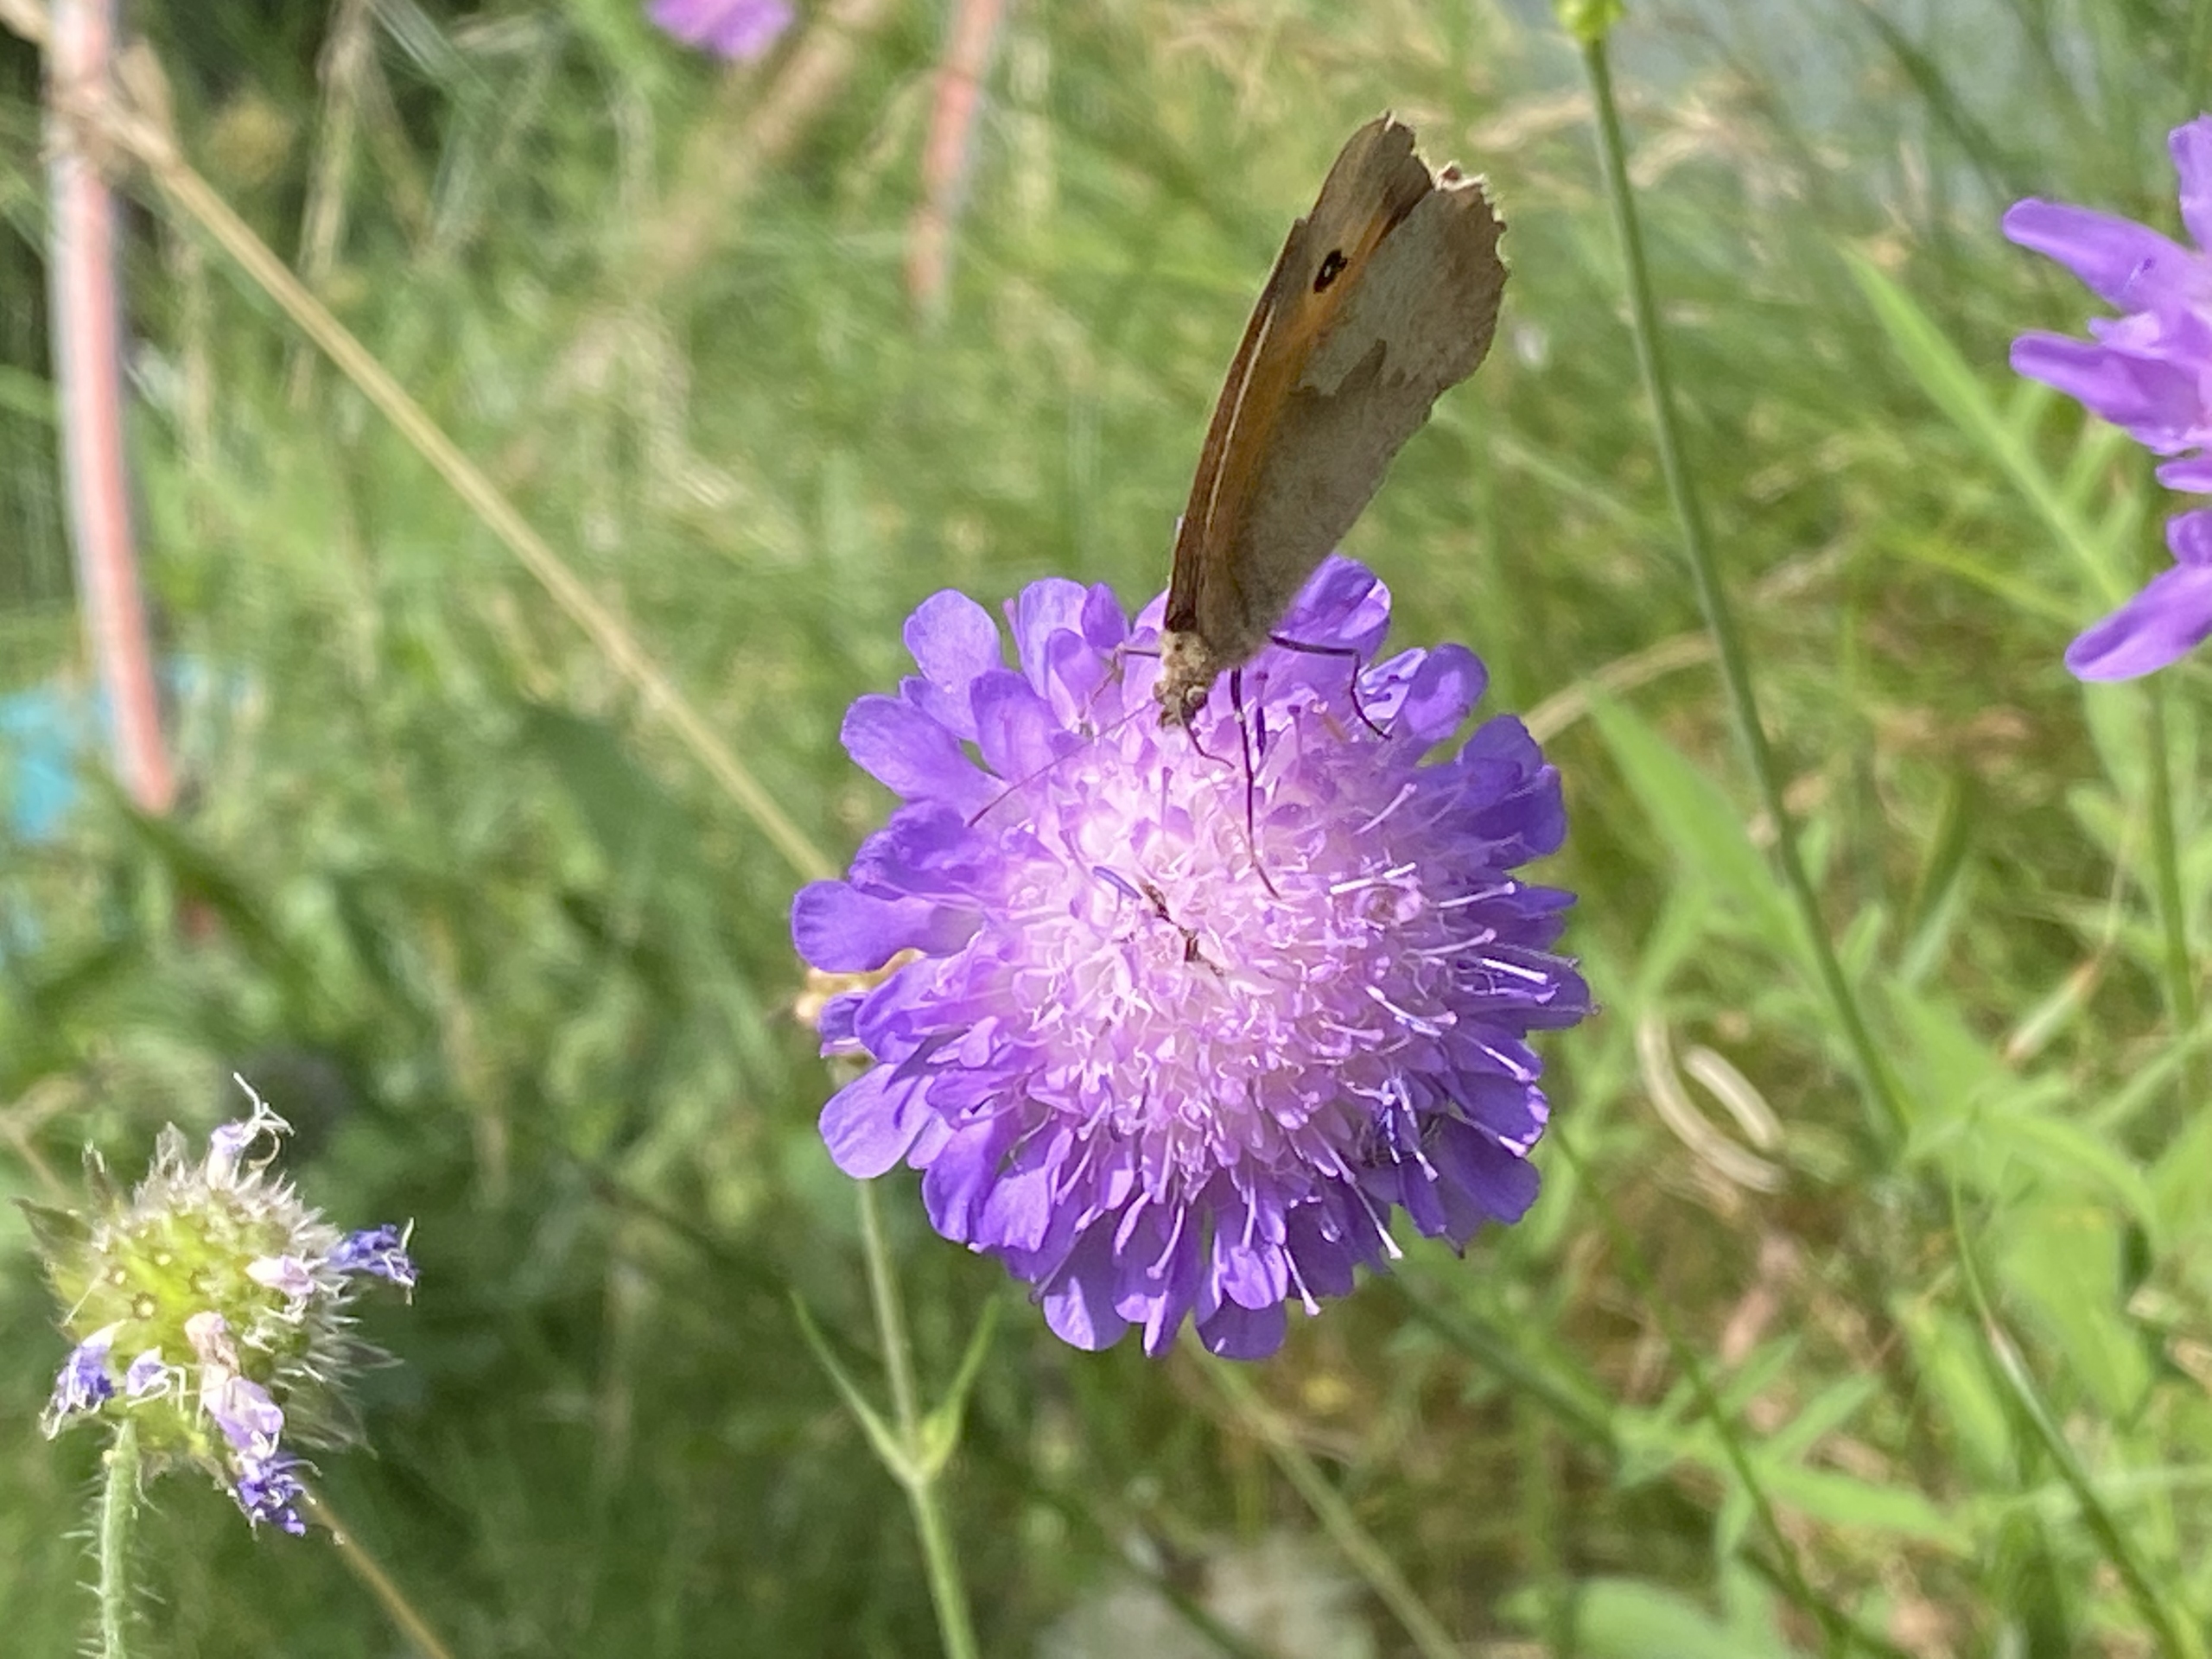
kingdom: Animalia
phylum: Arthropoda
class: Insecta
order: Lepidoptera
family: Nymphalidae
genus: Maniola
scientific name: Maniola jurtina
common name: Græsrandøje
